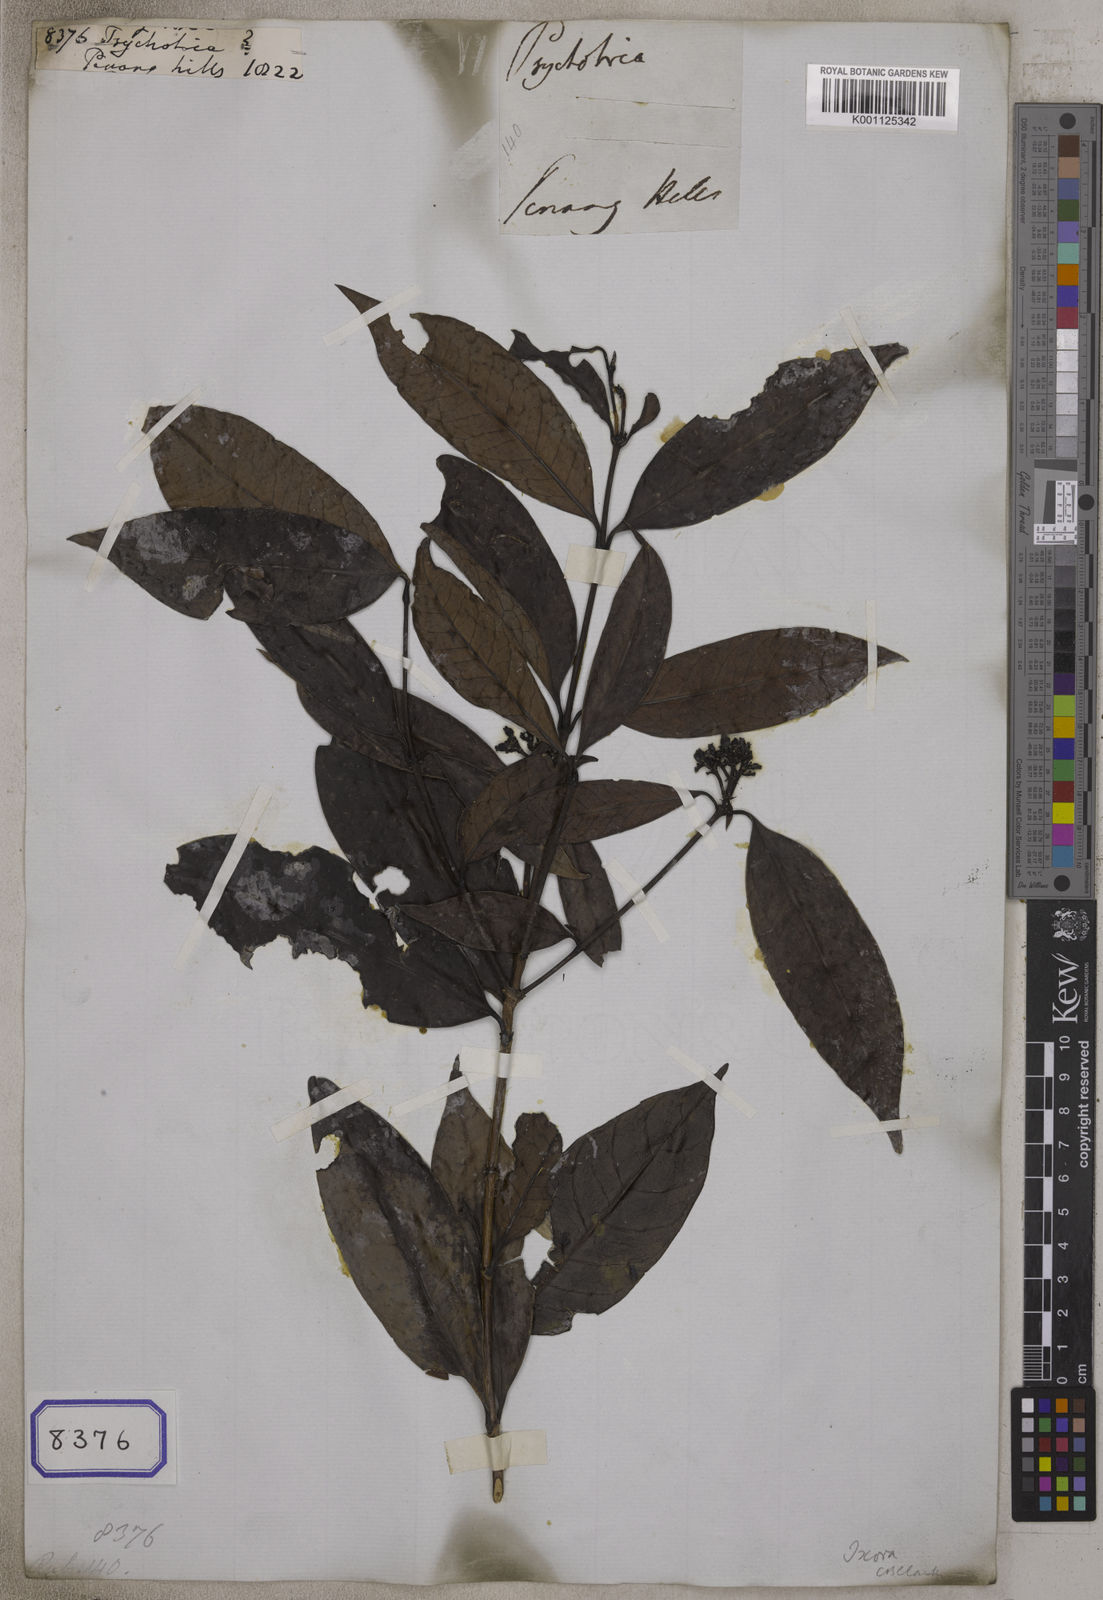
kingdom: Plantae
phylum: Tracheophyta
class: Magnoliopsida
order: Gentianales
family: Rubiaceae
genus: Psychotria
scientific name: Psychotria
